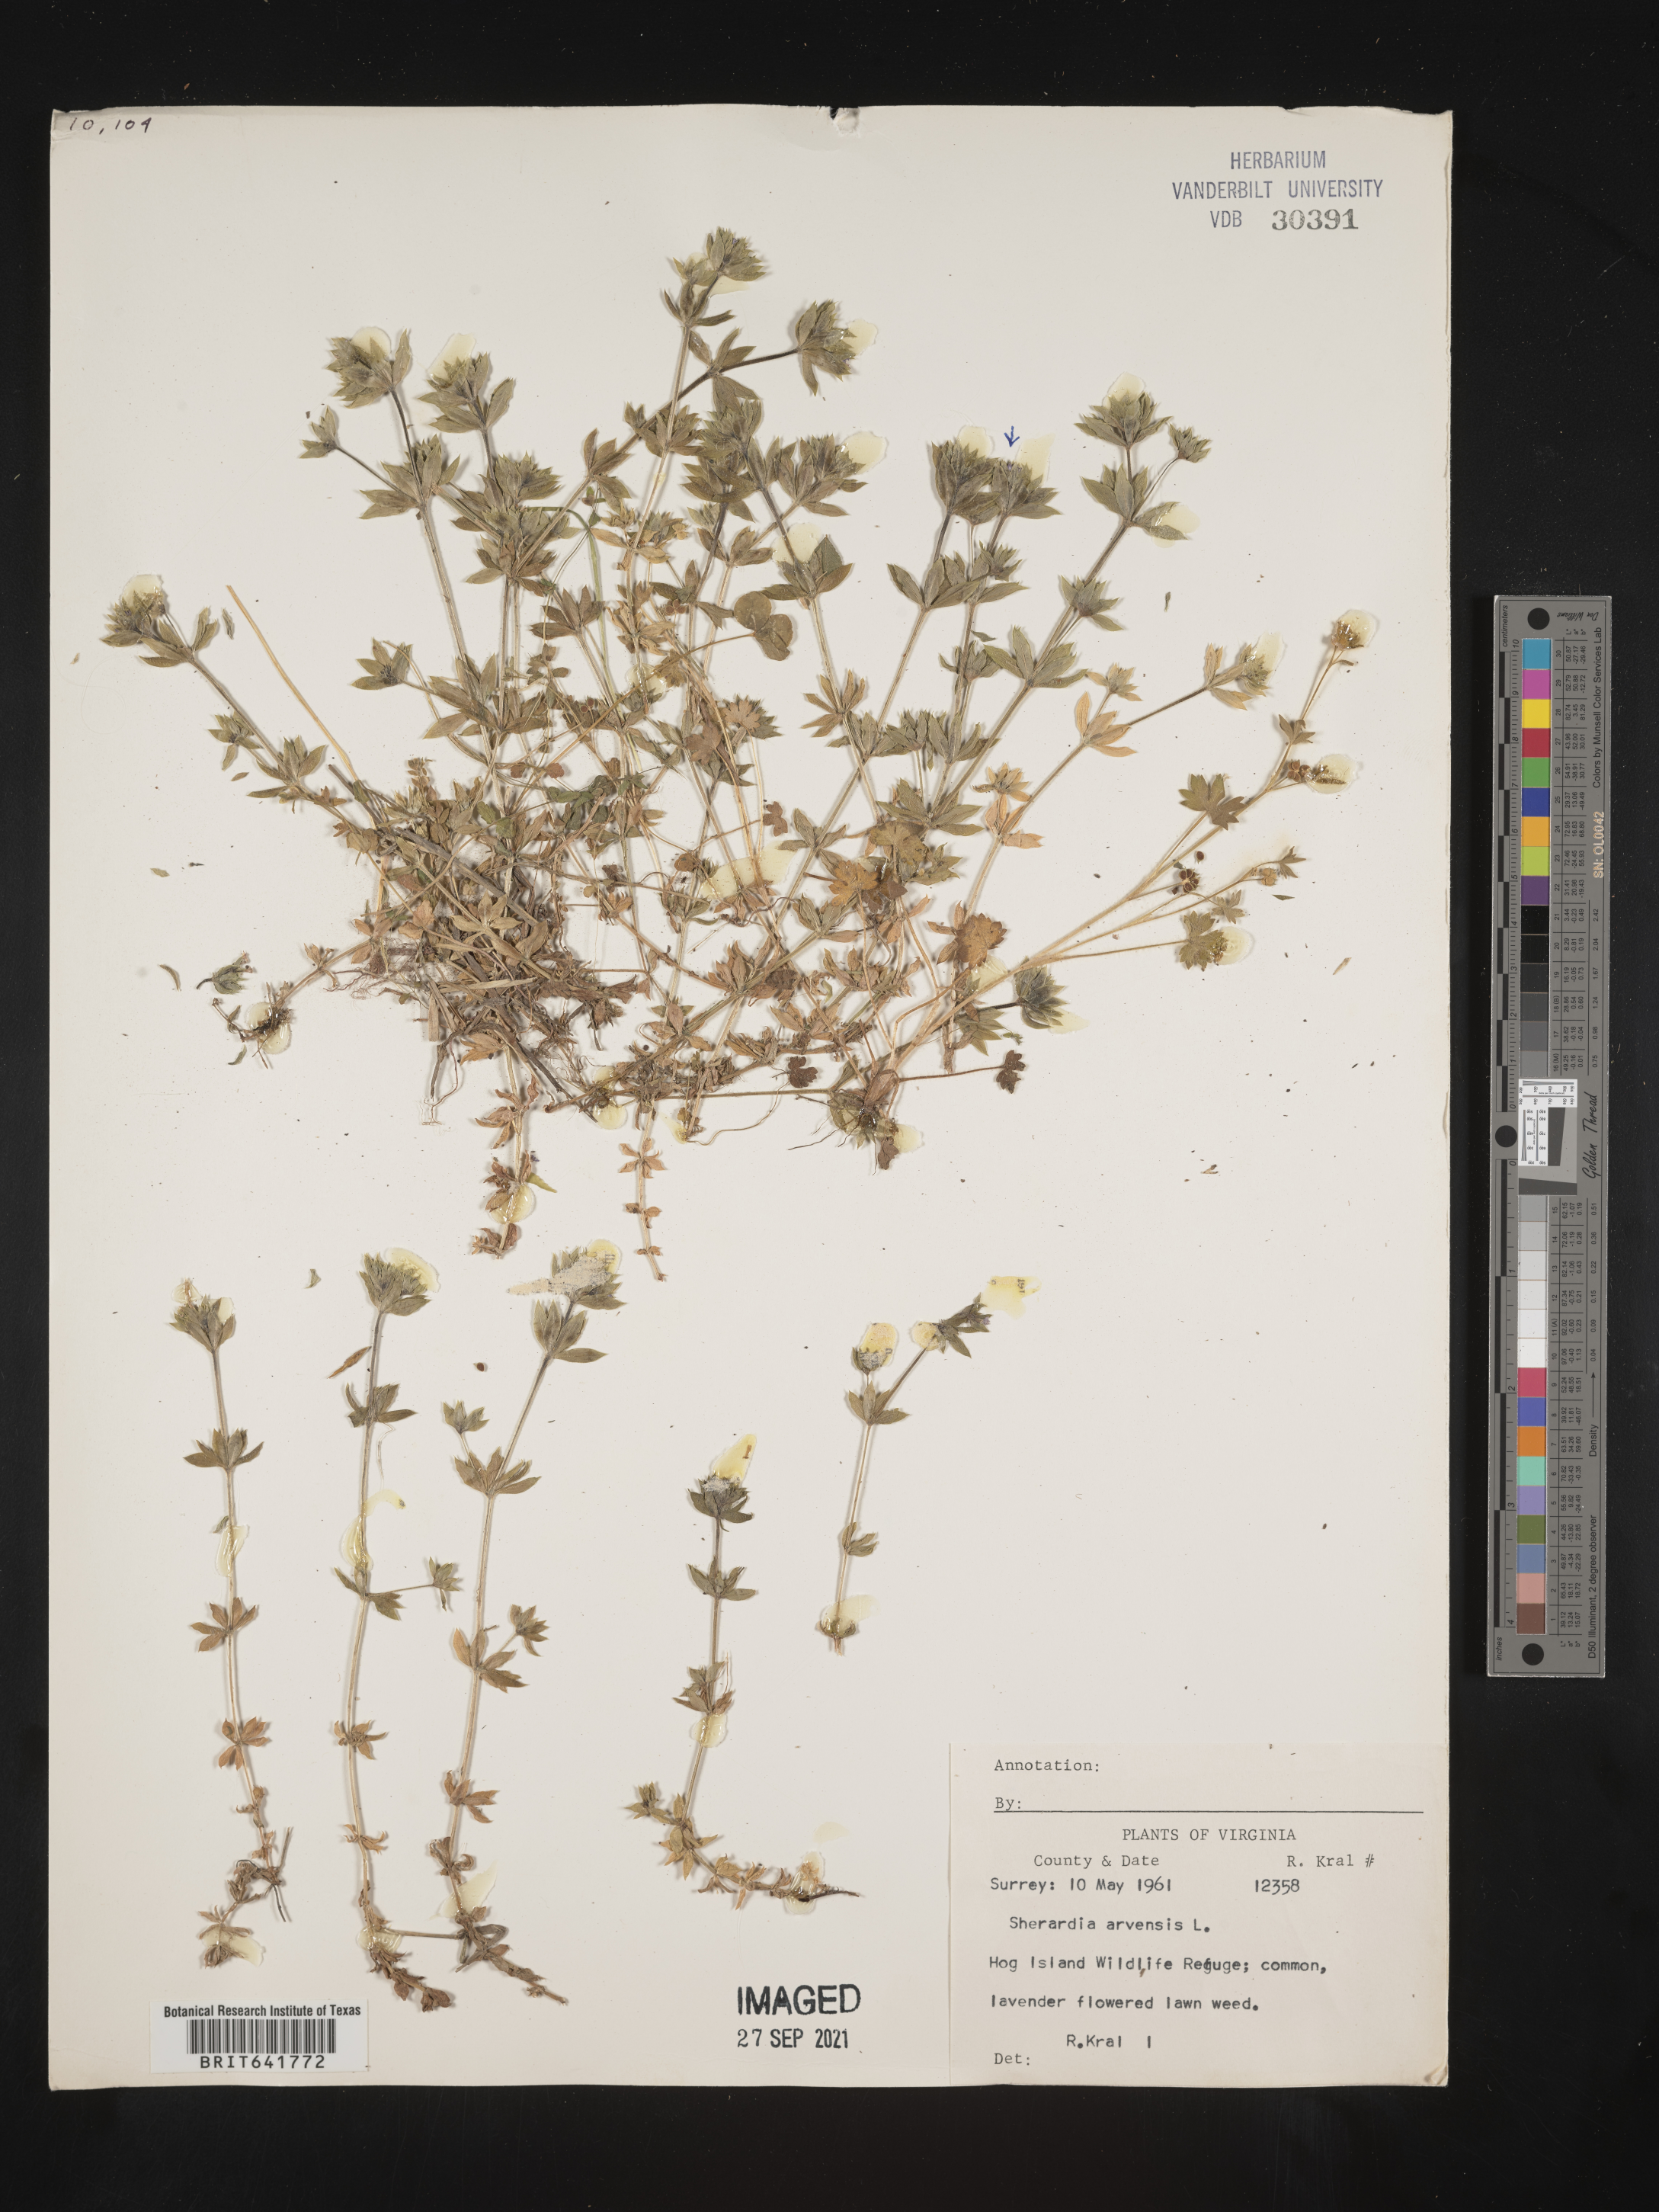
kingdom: Plantae
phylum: Tracheophyta
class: Magnoliopsida
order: Gentianales
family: Rubiaceae
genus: Sherardia
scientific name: Sherardia arvensis
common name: Field madder
